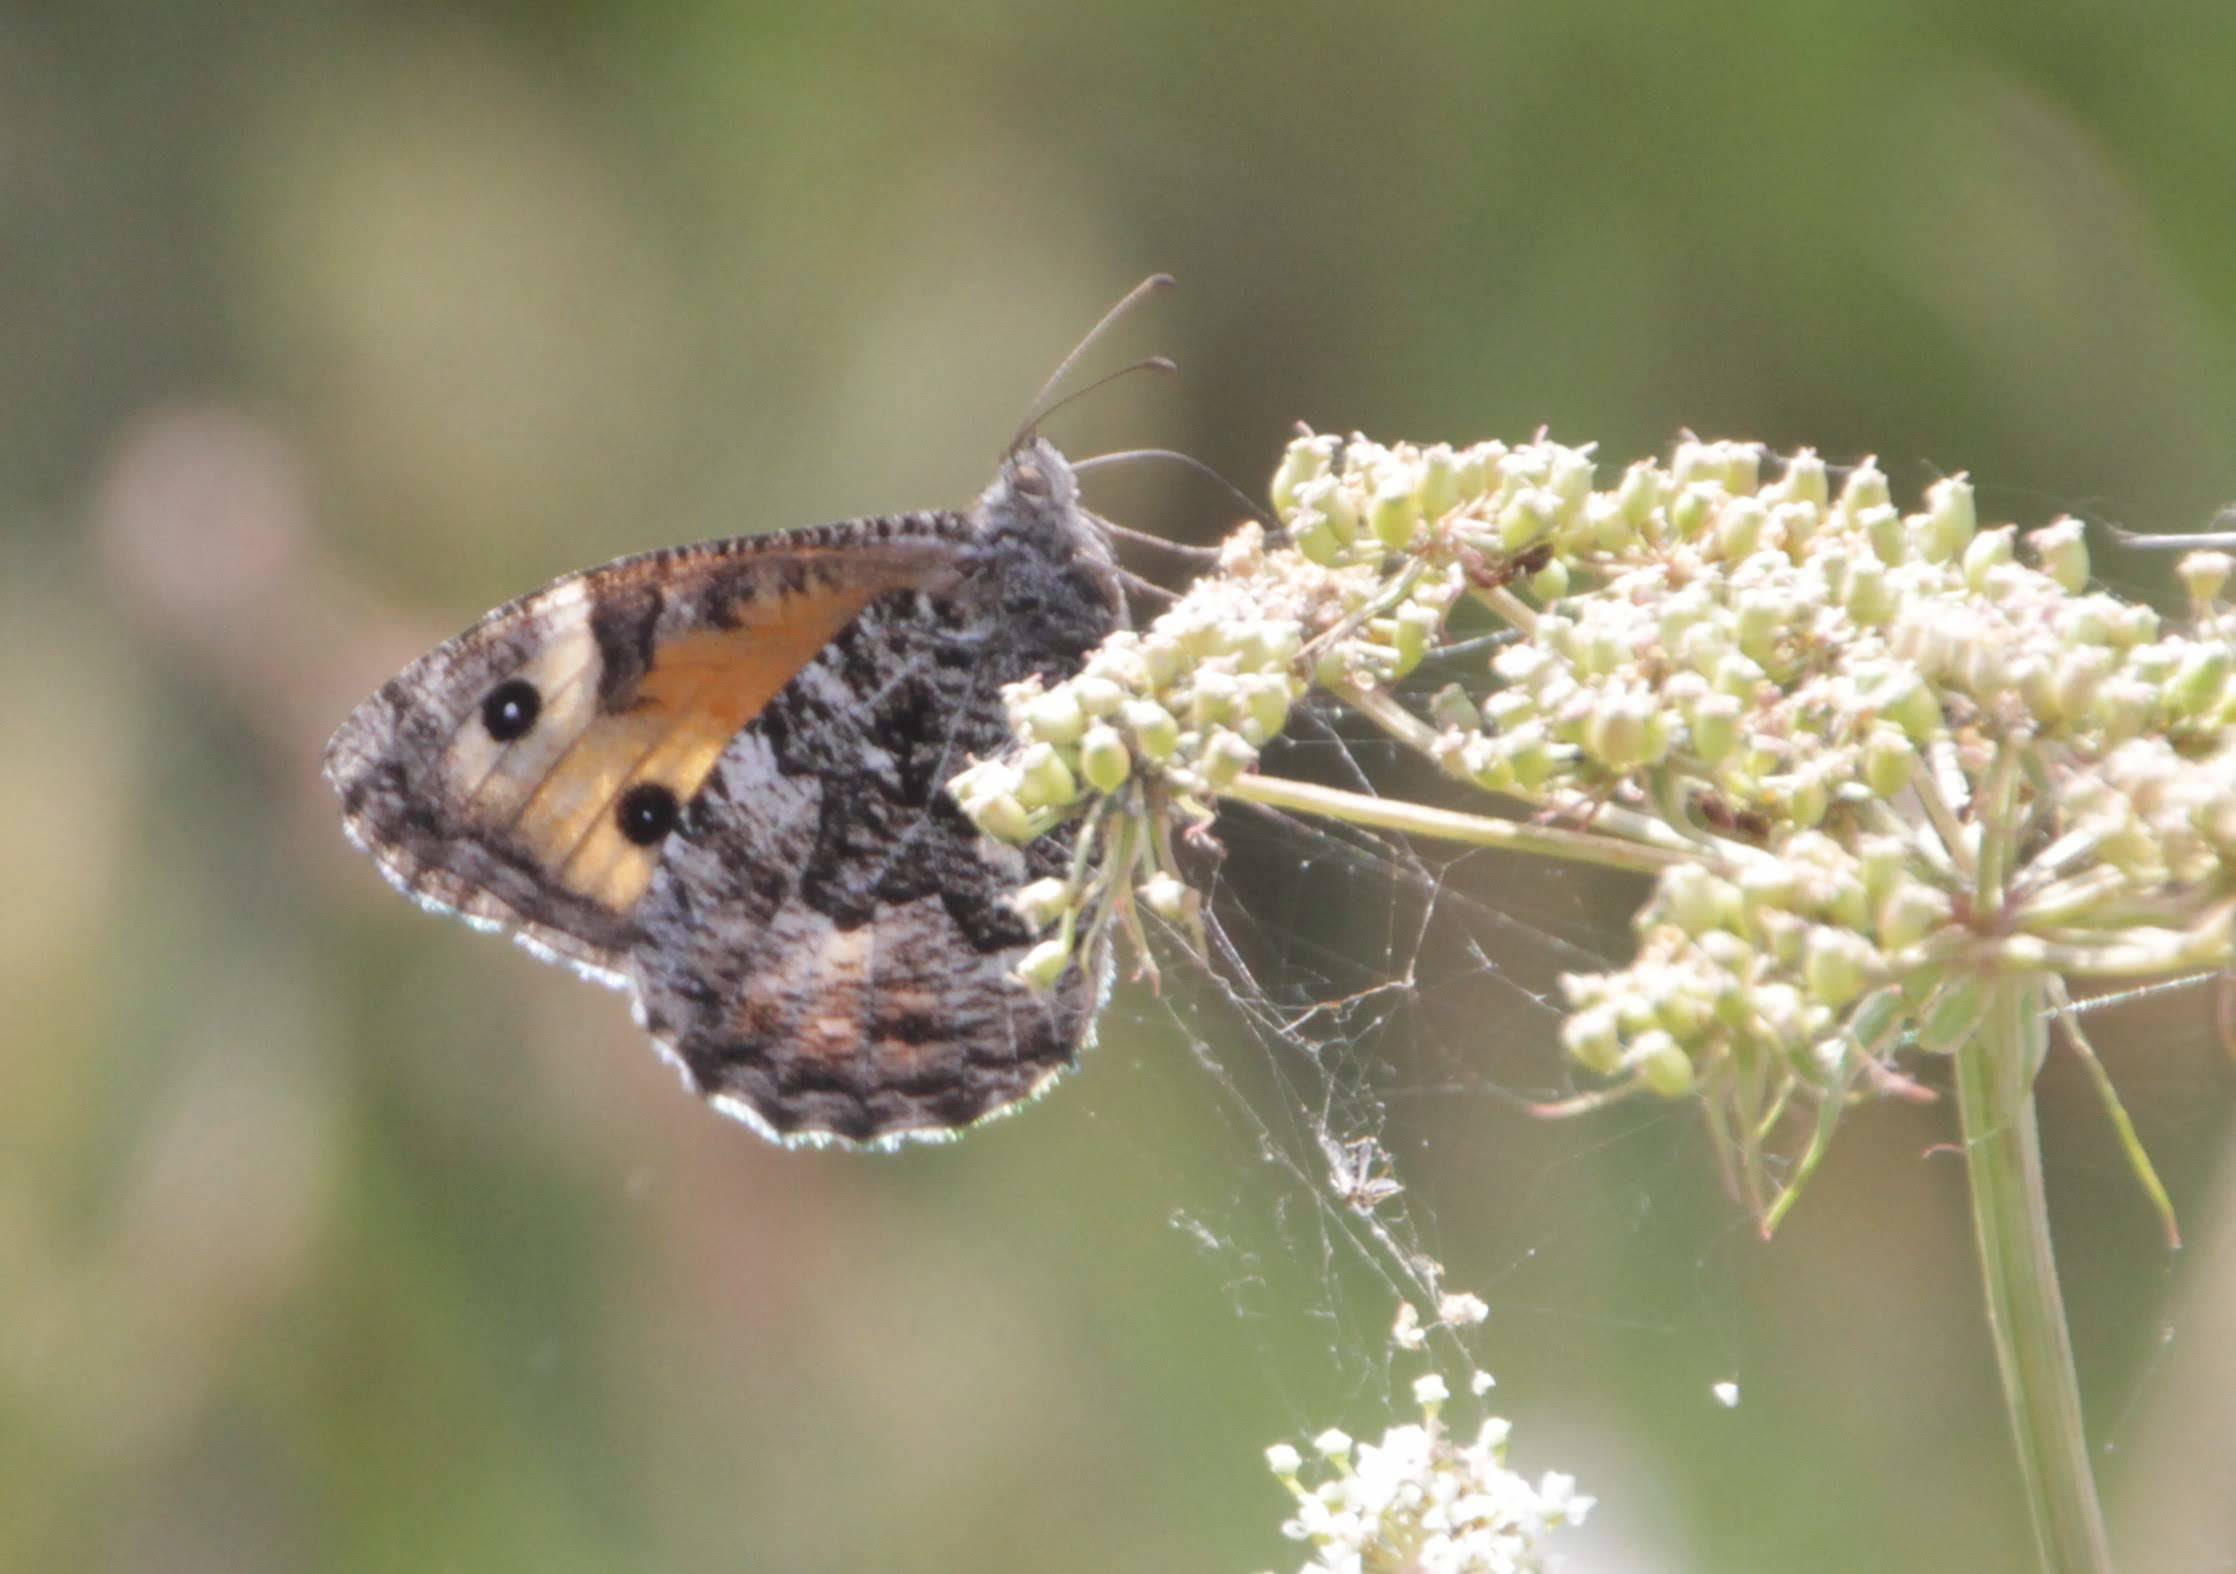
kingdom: Animalia
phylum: Arthropoda
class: Insecta
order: Lepidoptera
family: Nymphalidae
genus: Hipparchia
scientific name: Hipparchia semele
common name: Grayling
